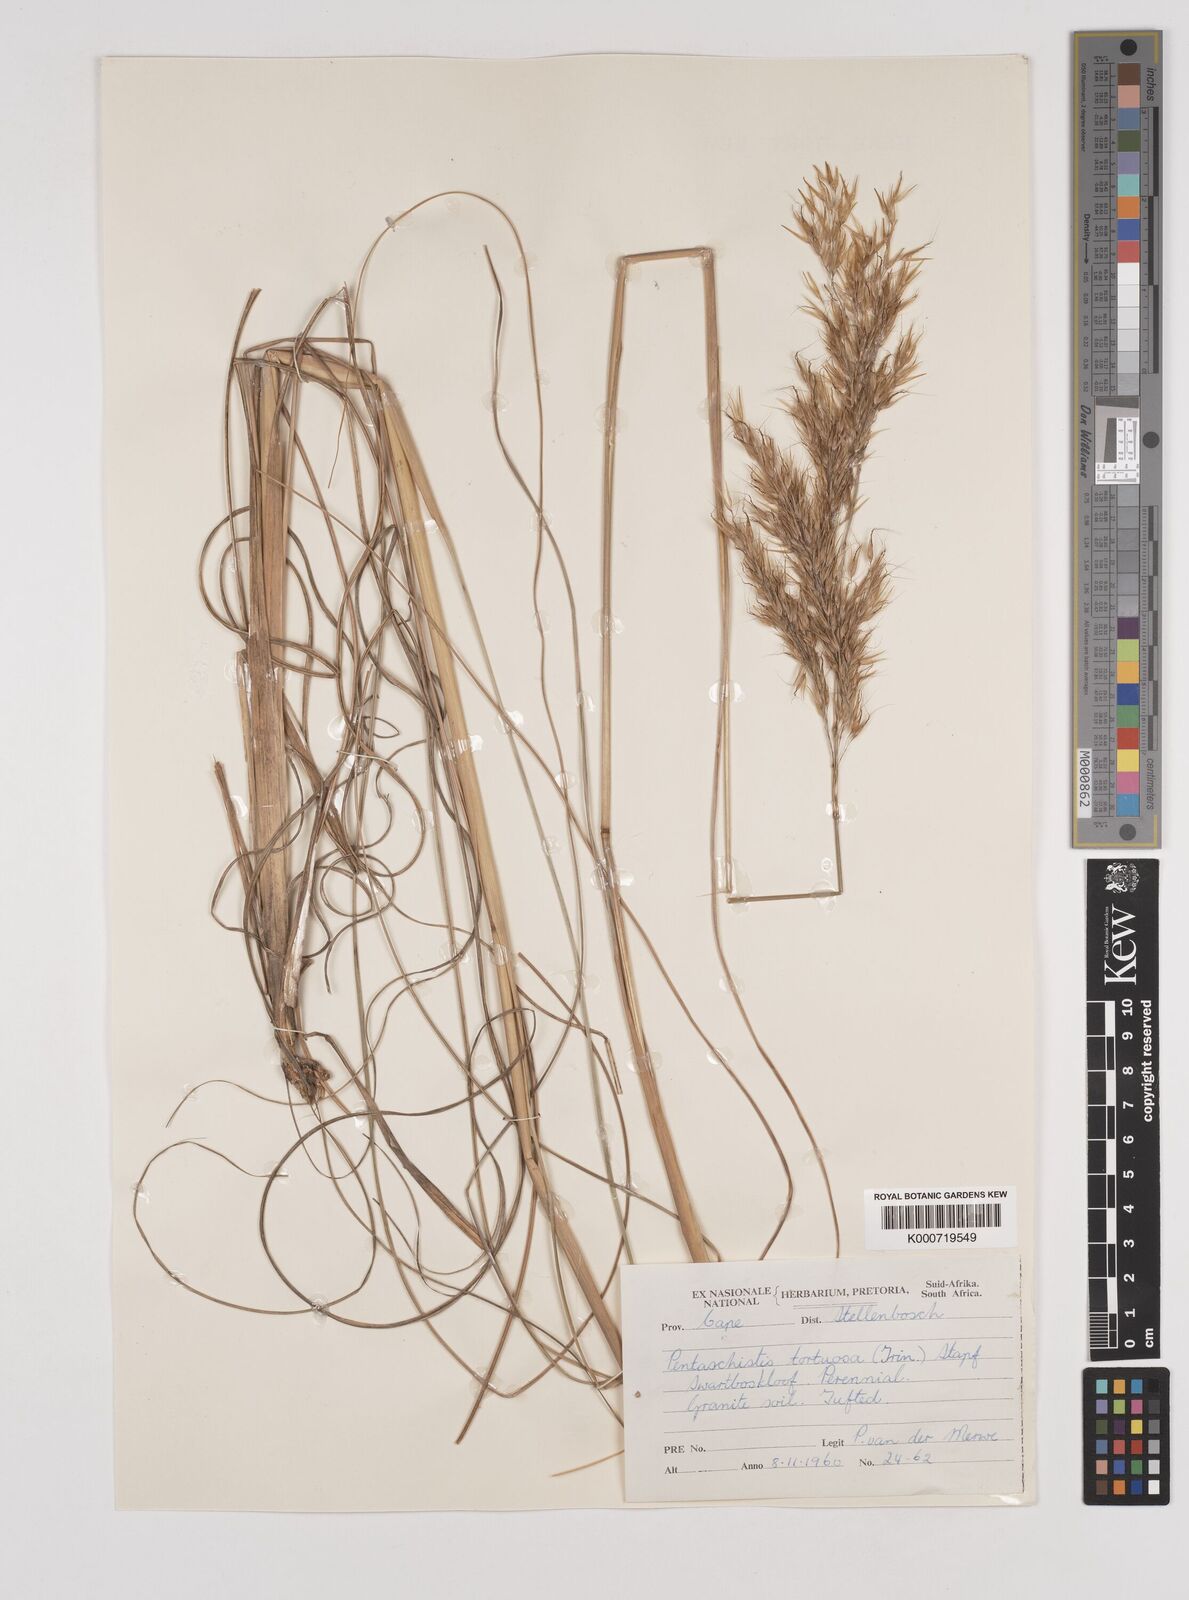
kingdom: Plantae
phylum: Tracheophyta
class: Liliopsida
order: Poales
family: Poaceae
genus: Pentameris
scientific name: Pentameris tortuosa
